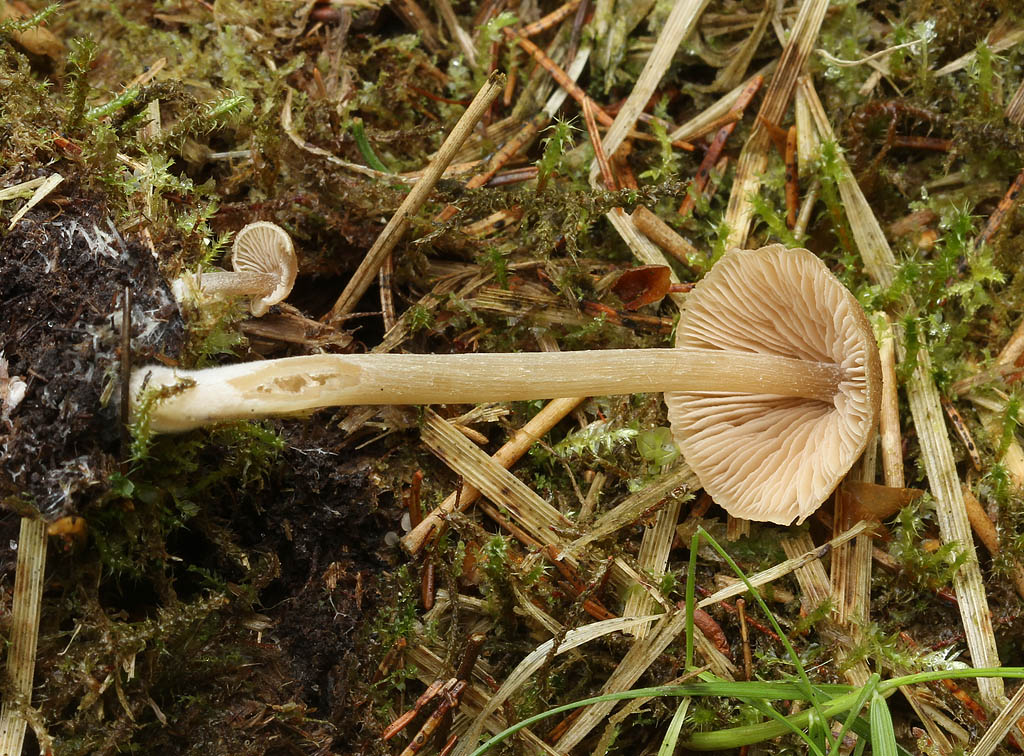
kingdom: Fungi
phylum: Basidiomycota
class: Agaricomycetes
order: Agaricales
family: Entolomataceae
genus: Entoloma
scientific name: Entoloma pallescens
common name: tidlig rødblad
